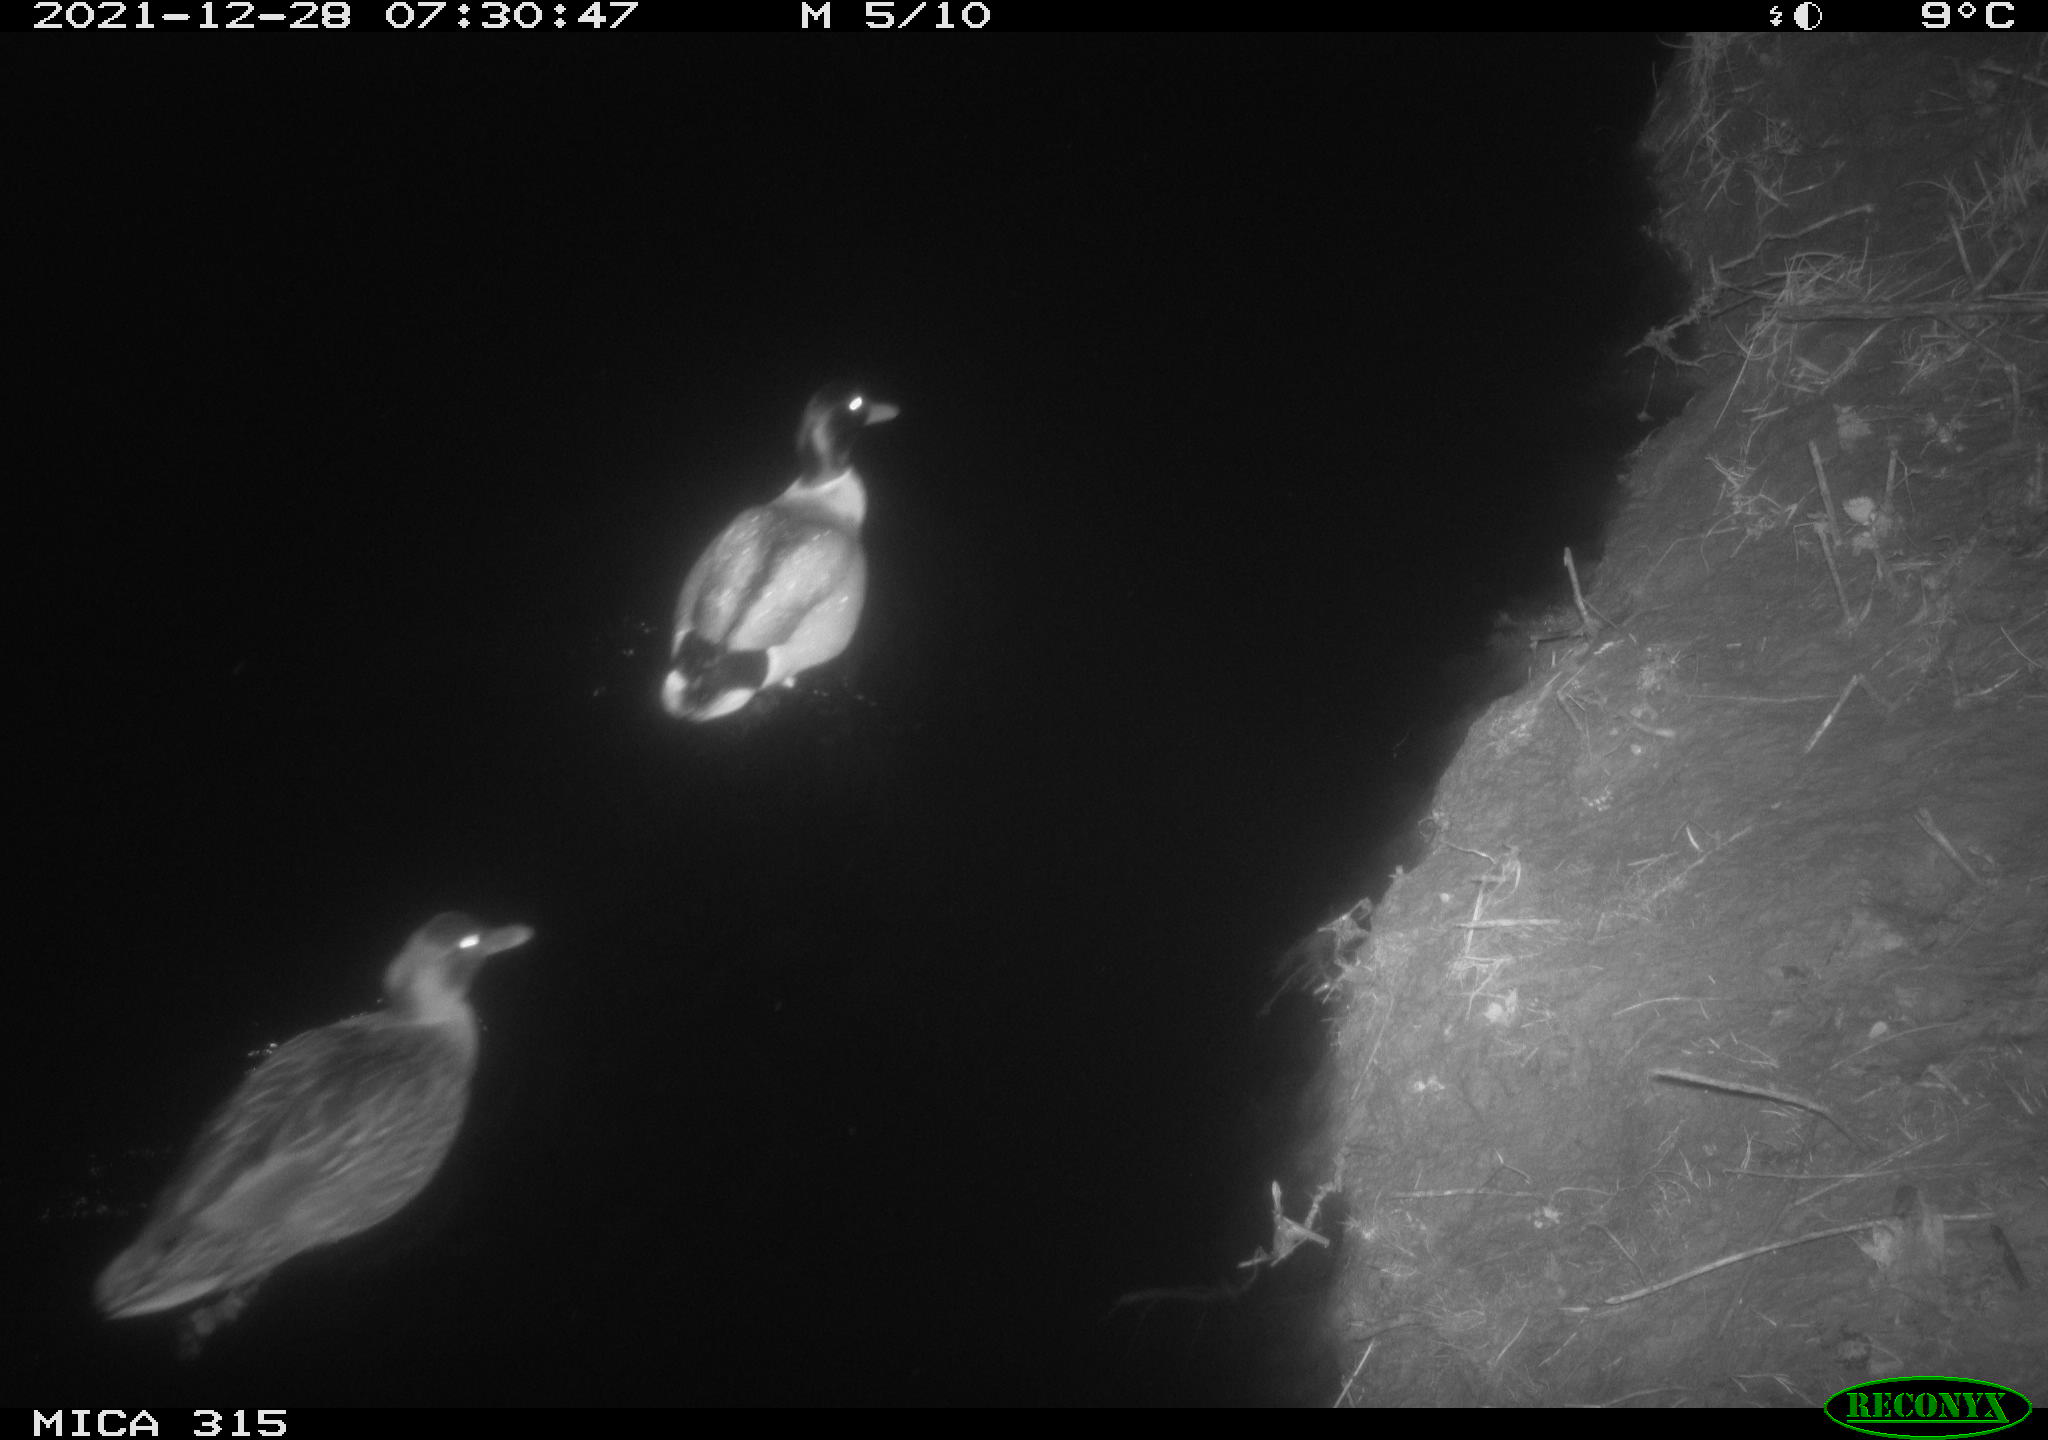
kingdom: Animalia
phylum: Chordata
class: Aves
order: Anseriformes
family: Anatidae
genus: Anas
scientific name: Anas
